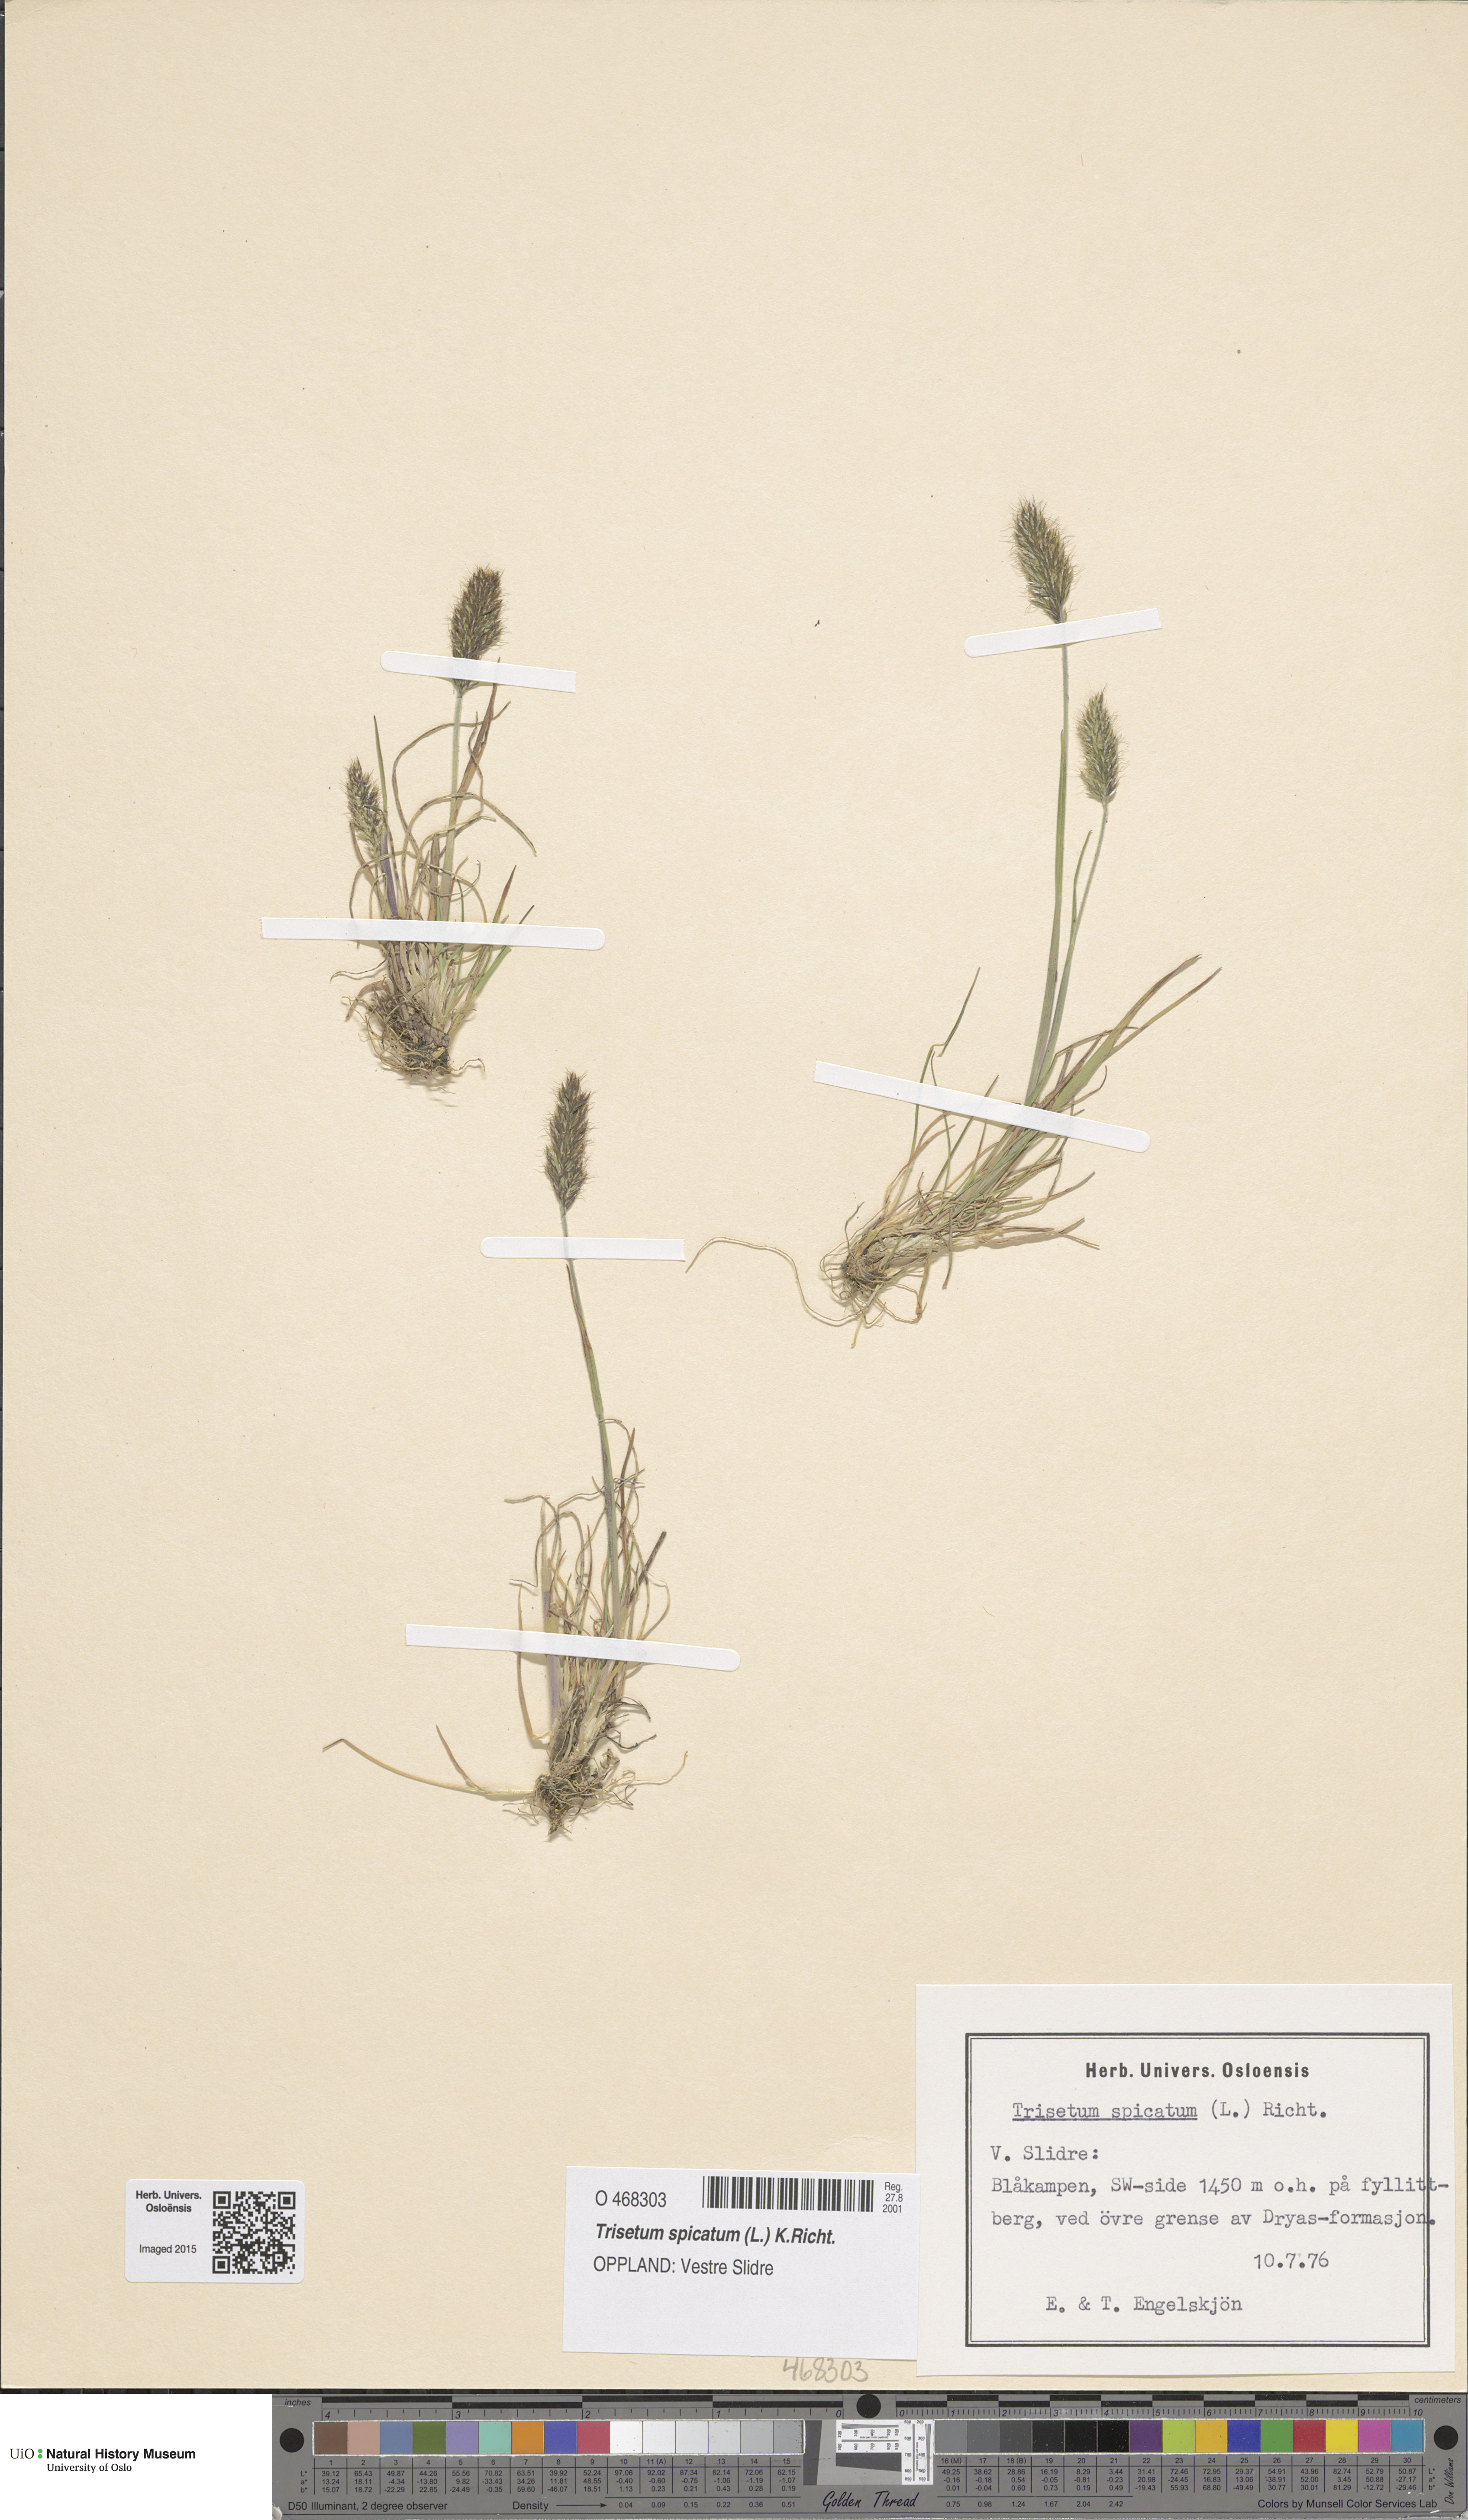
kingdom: Plantae
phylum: Tracheophyta
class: Liliopsida
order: Poales
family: Poaceae
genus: Koeleria
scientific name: Koeleria spicata
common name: Mountain trisetum
